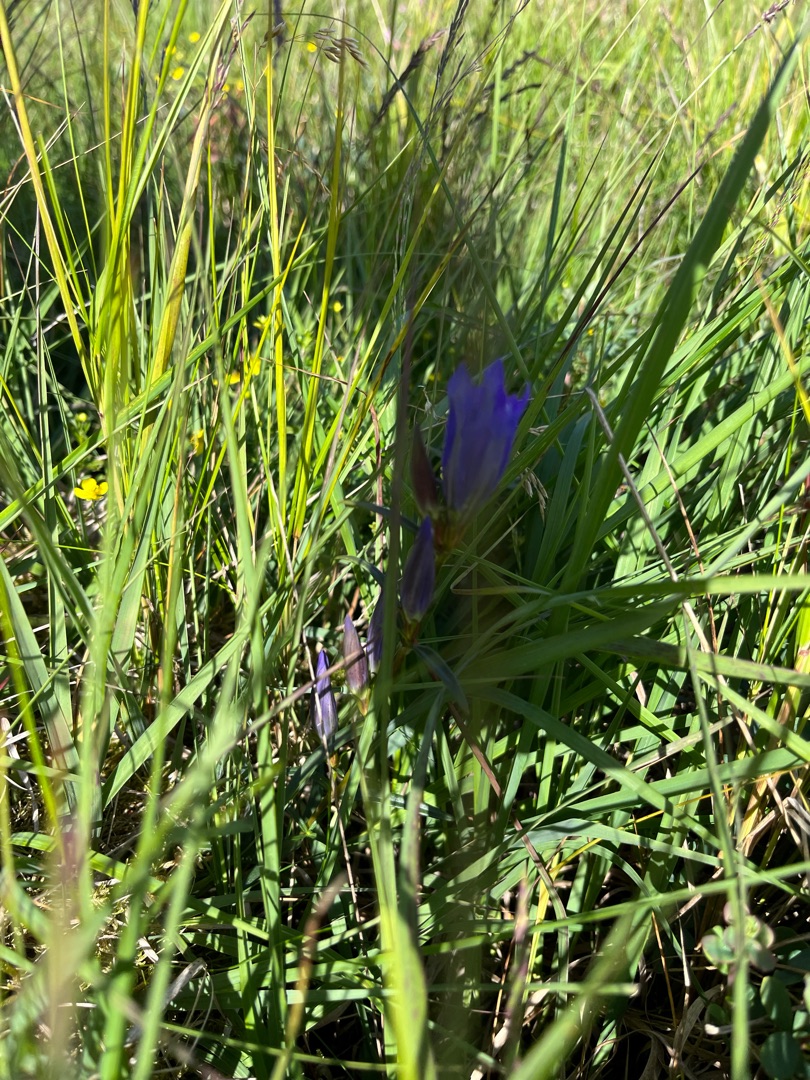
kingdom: Plantae
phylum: Tracheophyta
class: Magnoliopsida
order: Gentianales
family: Gentianaceae
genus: Gentiana
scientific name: Gentiana pneumonanthe
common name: Klokke-ensian
